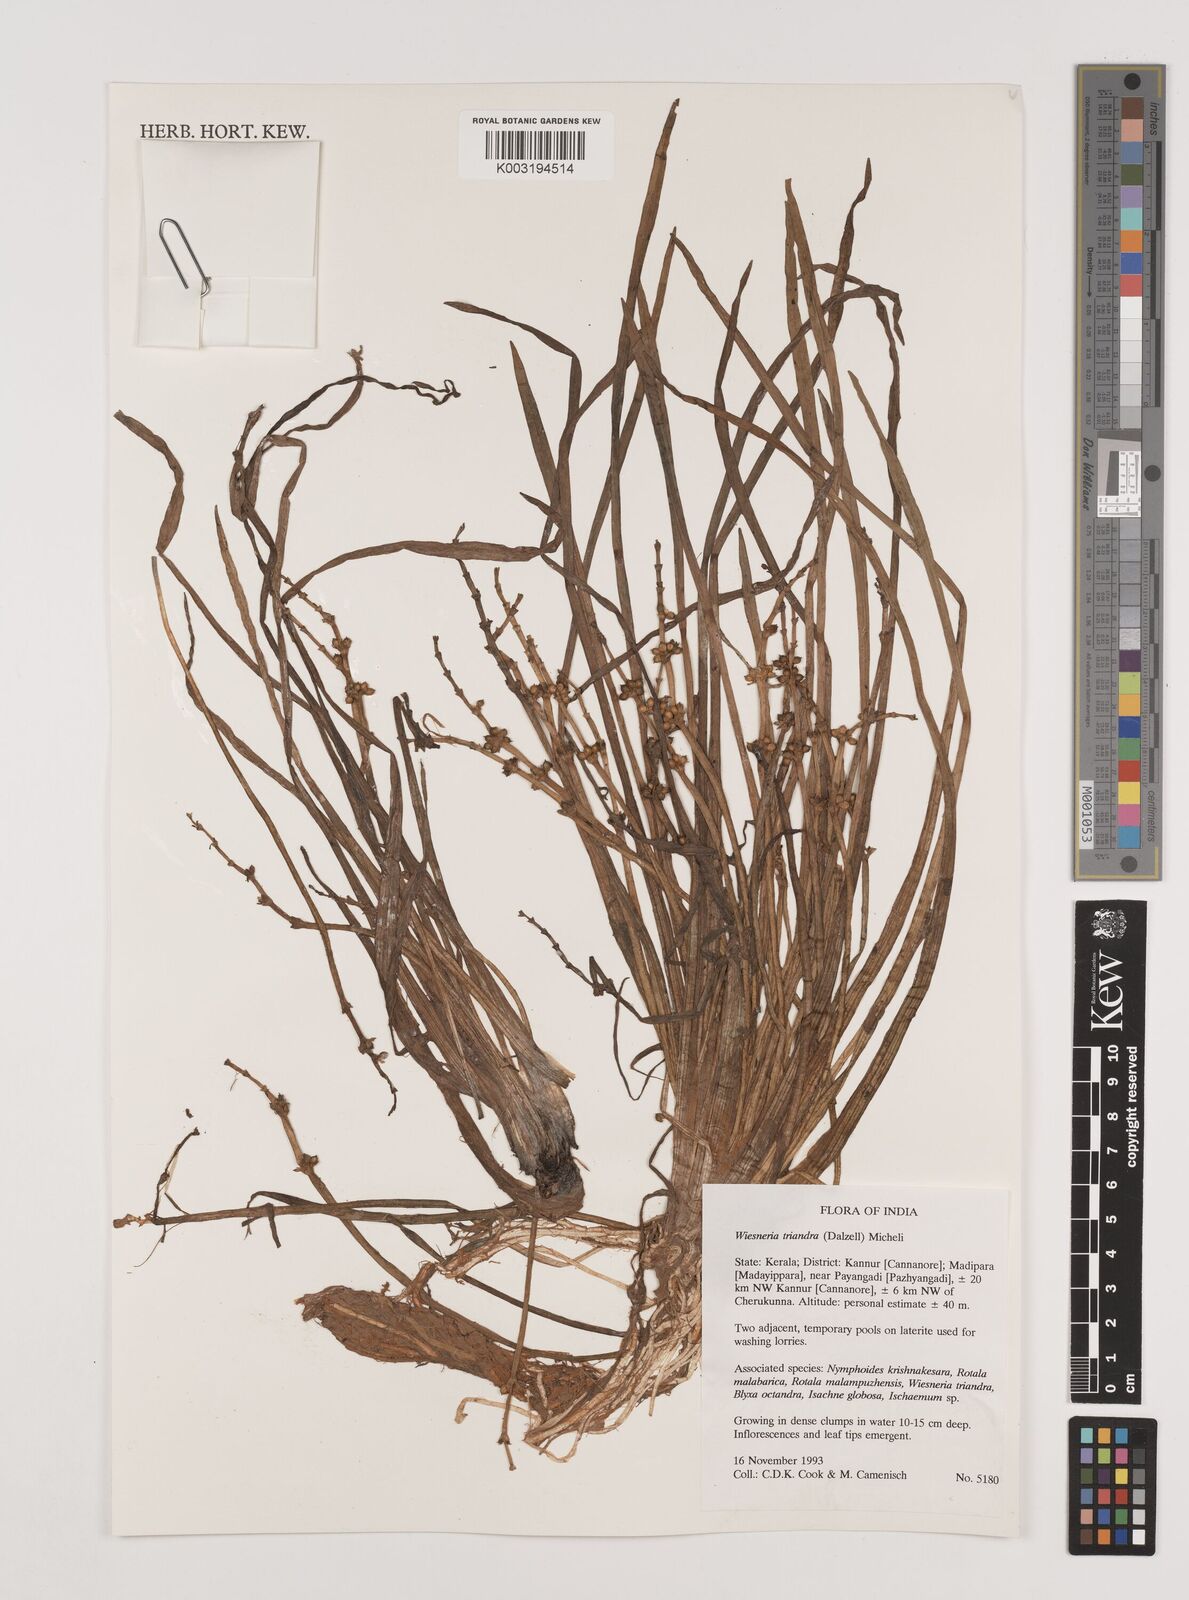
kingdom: Plantae
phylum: Tracheophyta
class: Liliopsida
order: Alismatales
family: Alismataceae
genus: Wiesneria
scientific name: Wiesneria triandra
